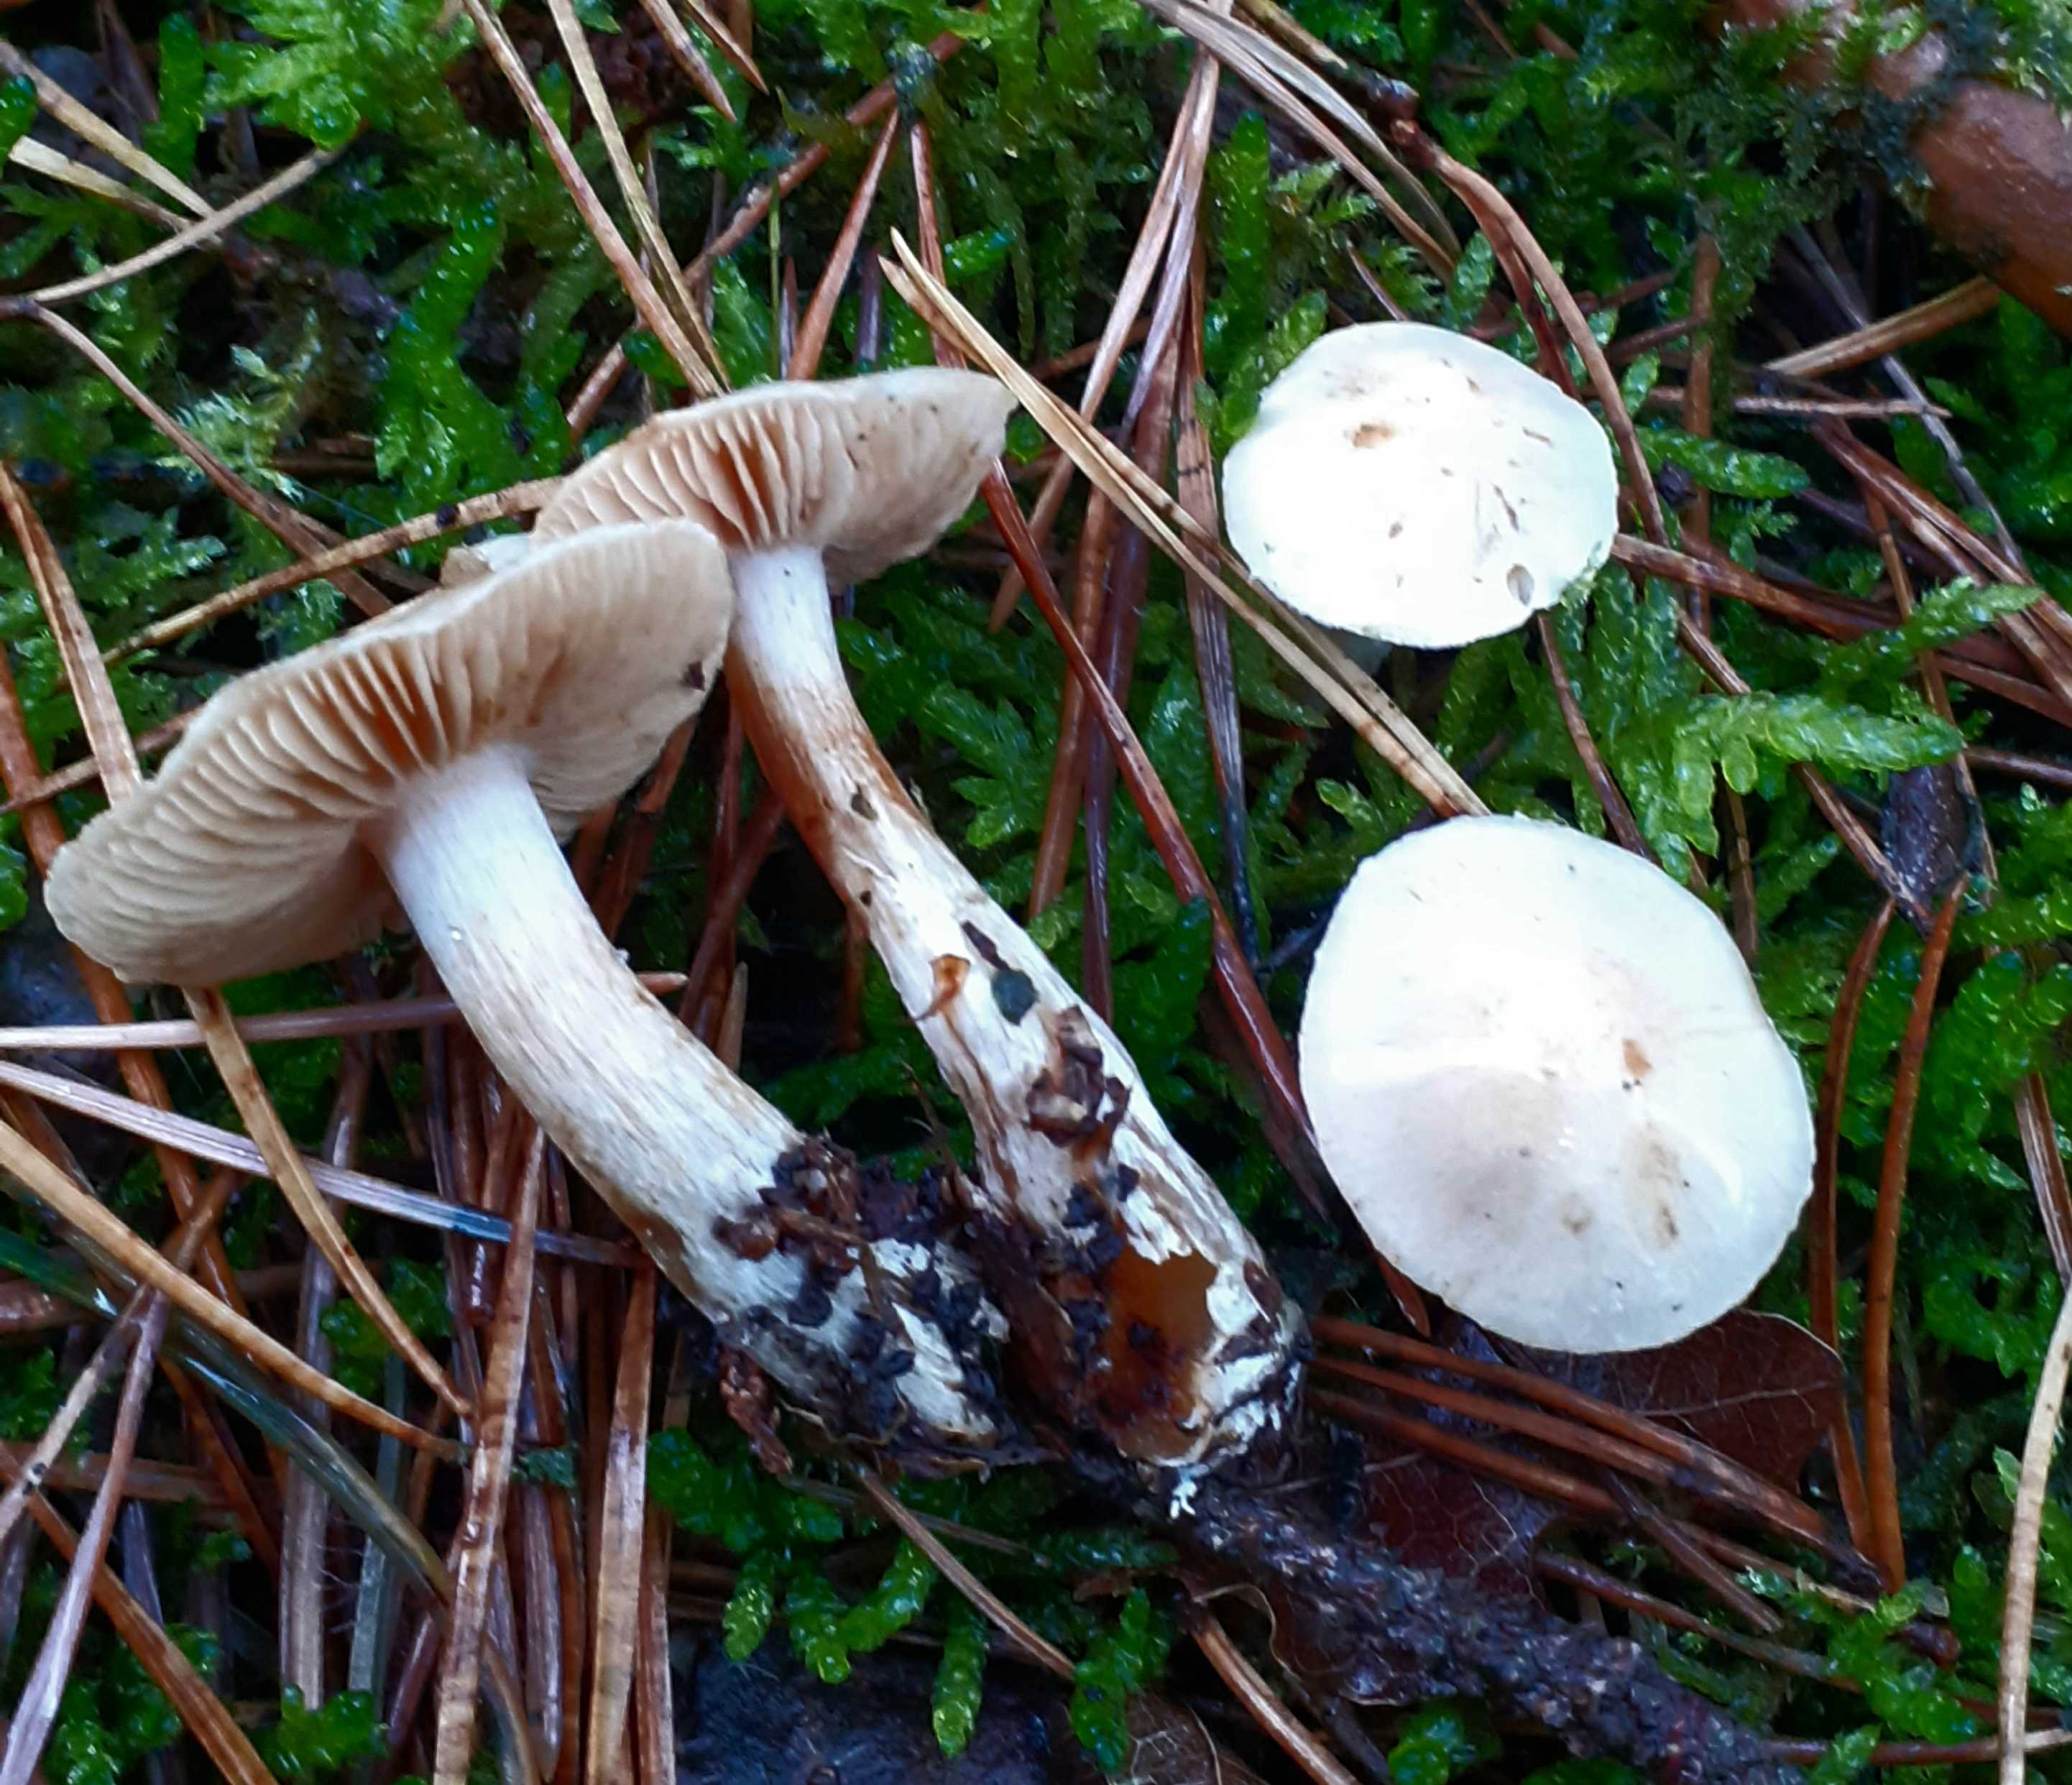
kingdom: Fungi
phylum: Basidiomycota
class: Agaricomycetes
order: Agaricales
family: Cortinariaceae
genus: Cortinarius
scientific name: Cortinarius
